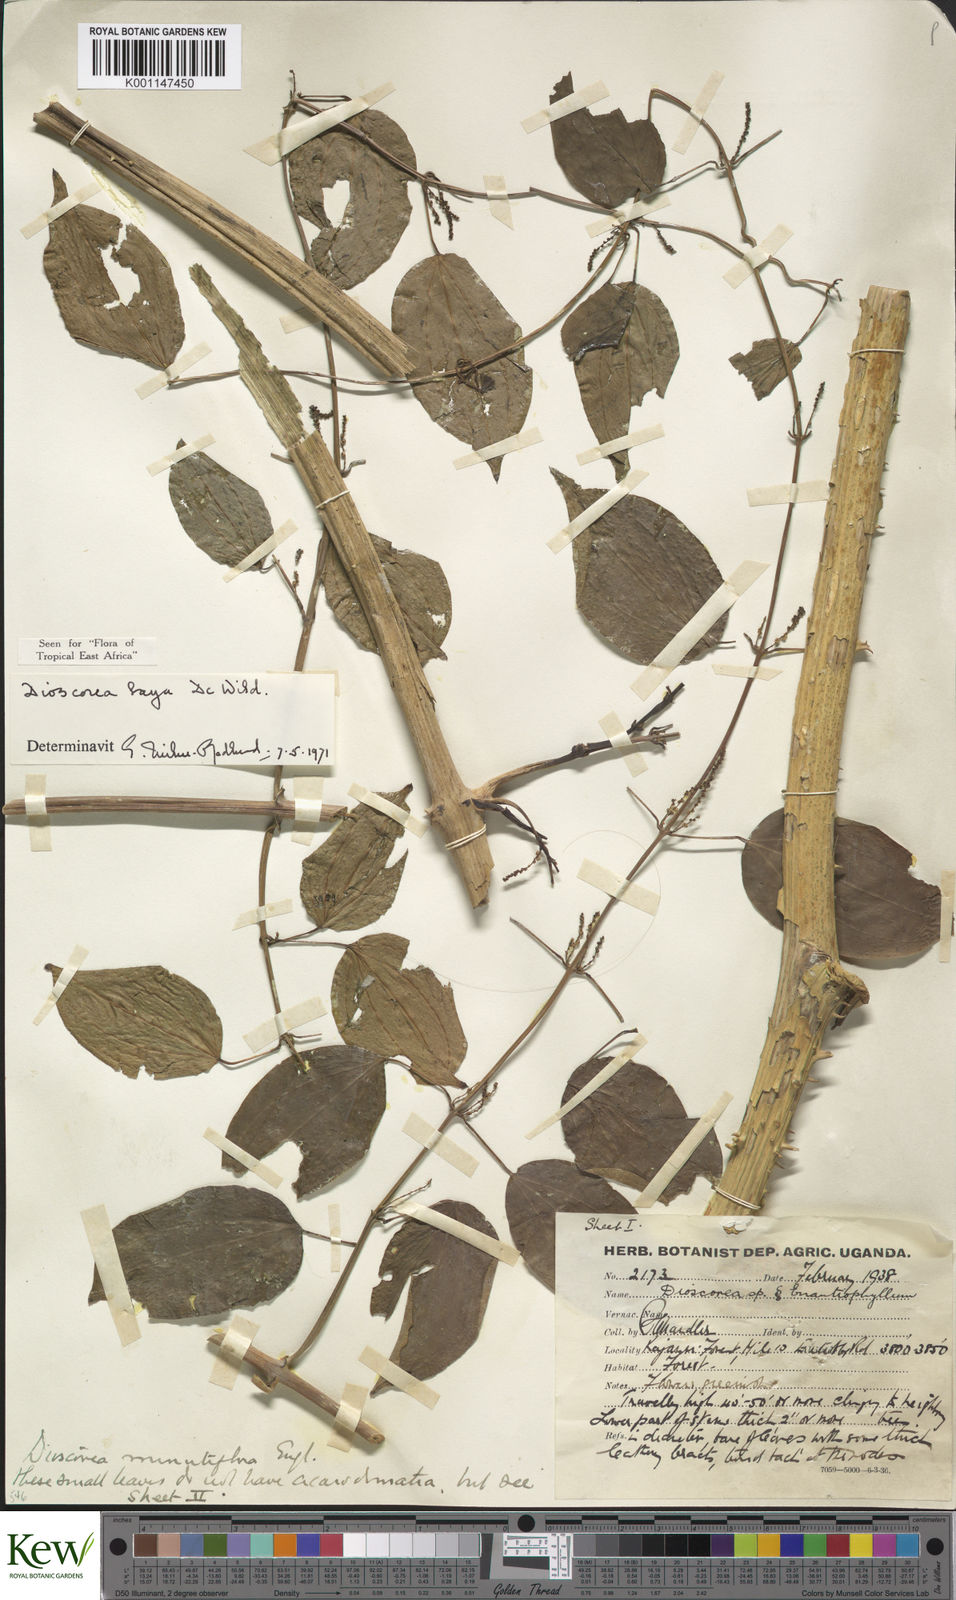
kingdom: Plantae
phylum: Tracheophyta
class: Liliopsida
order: Dioscoreales
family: Dioscoreaceae
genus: Dioscorea
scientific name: Dioscorea baya
